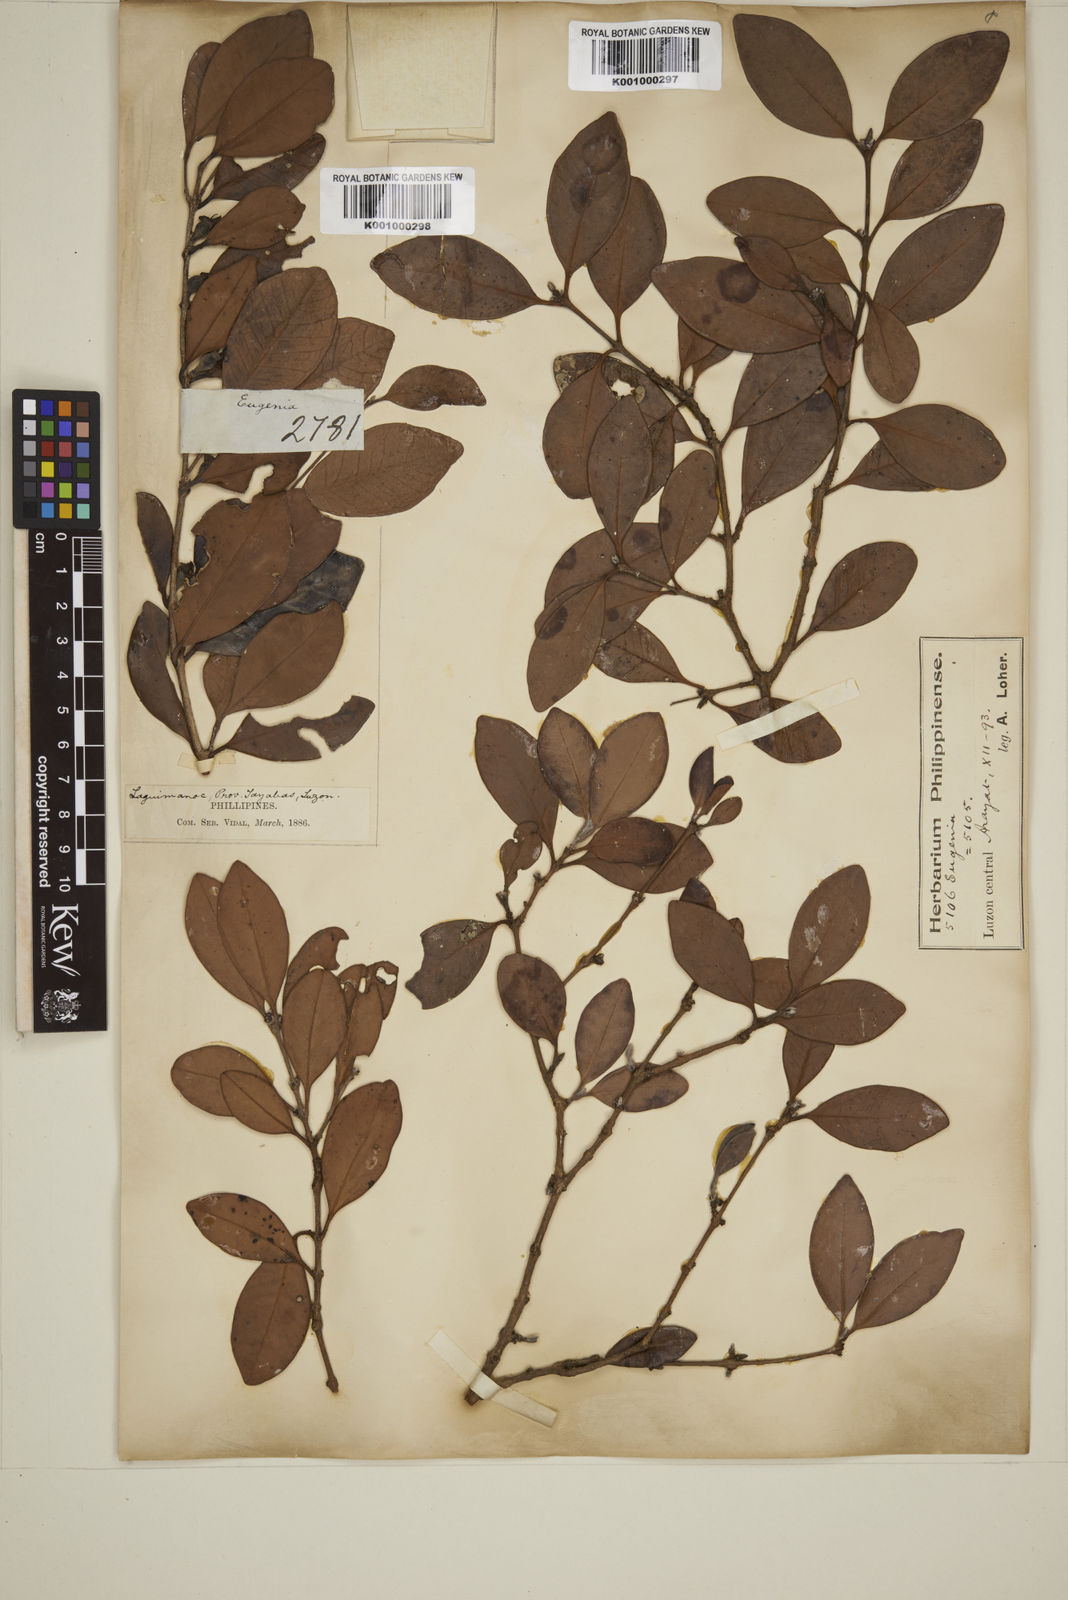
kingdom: Plantae
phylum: Tracheophyta
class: Magnoliopsida
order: Myrtales
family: Myrtaceae
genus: Eugenia
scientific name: Eugenia sargentii
